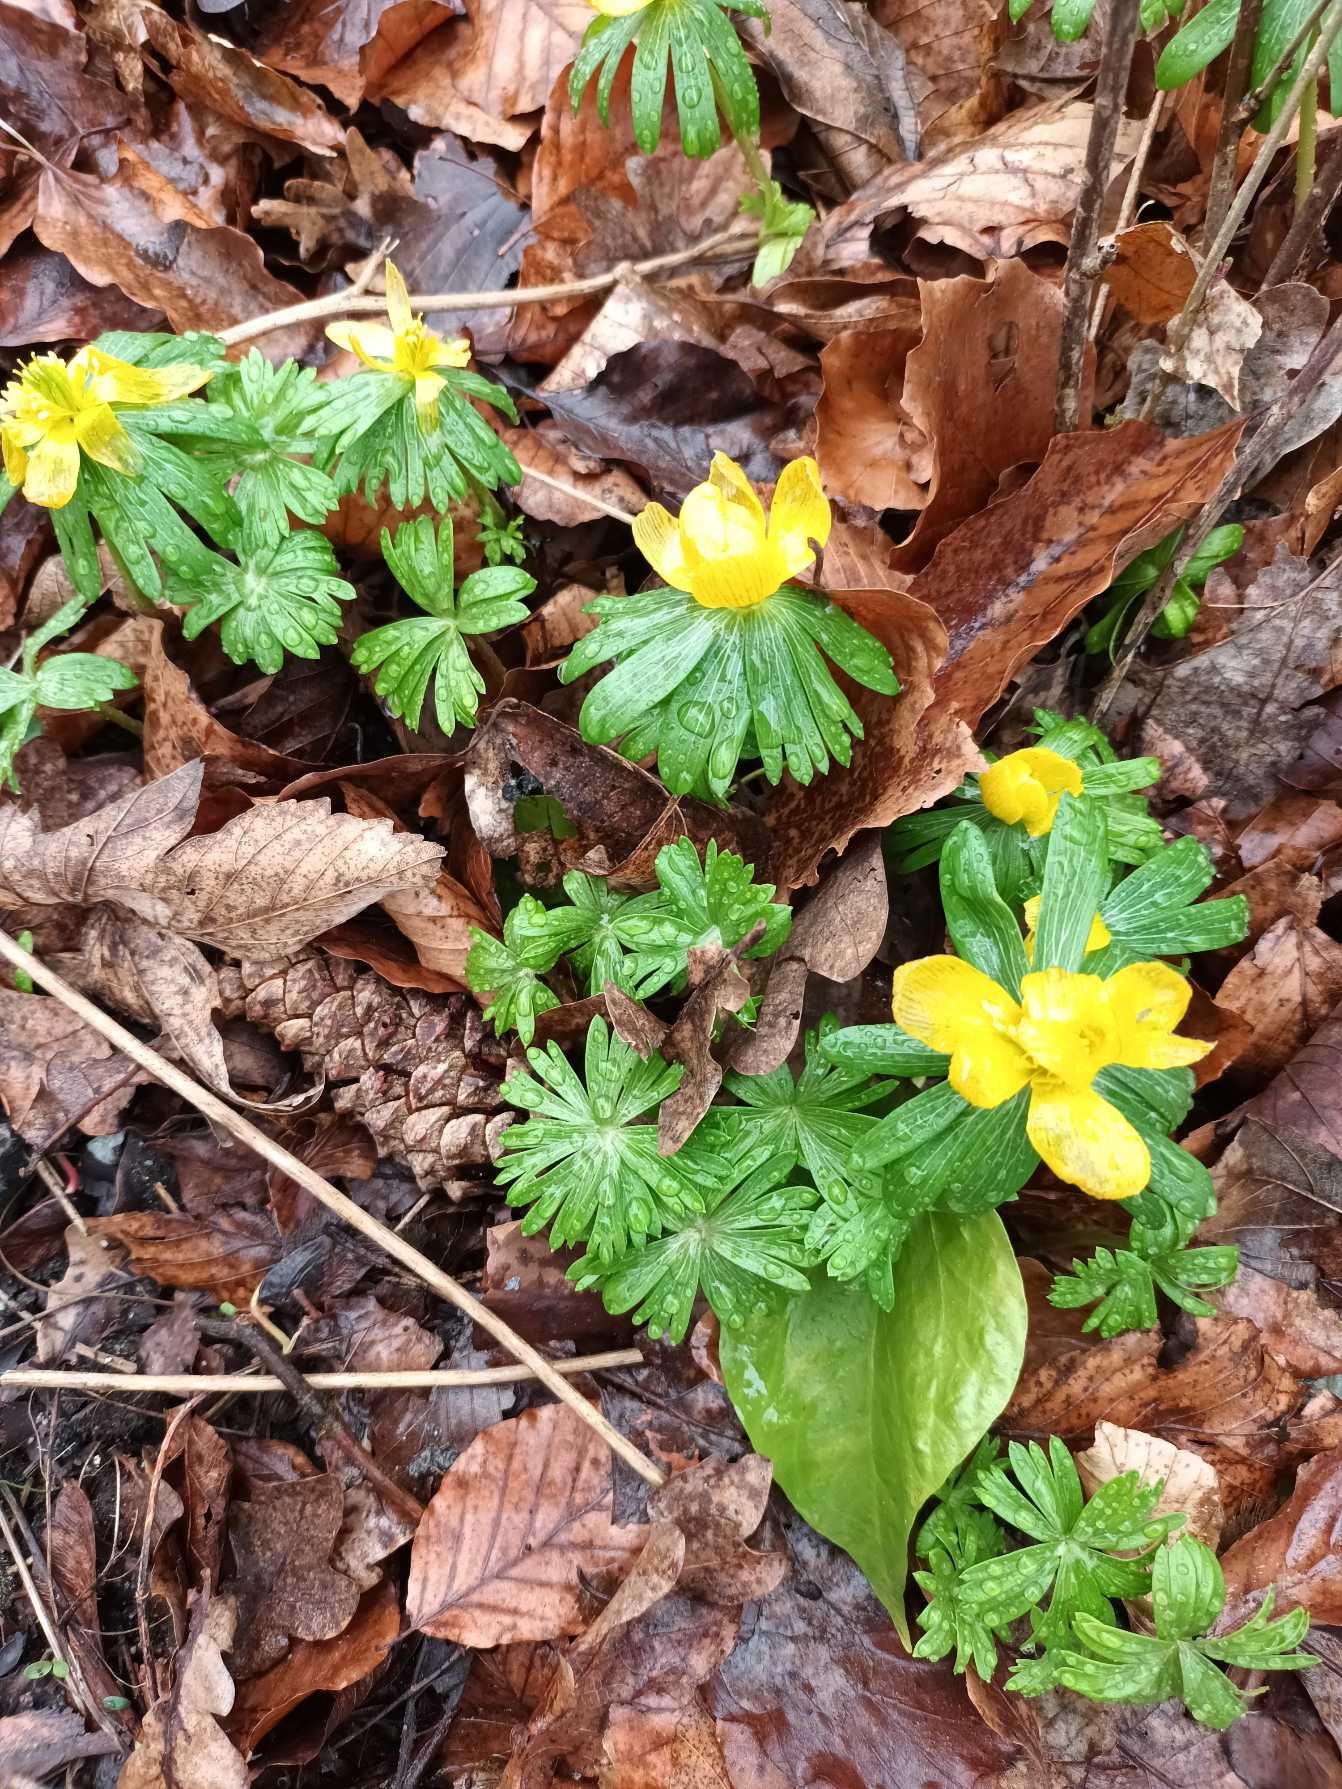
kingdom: Plantae
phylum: Tracheophyta
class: Magnoliopsida
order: Ranunculales
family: Ranunculaceae
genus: Eranthis
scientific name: Eranthis hyemalis
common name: Erantis
